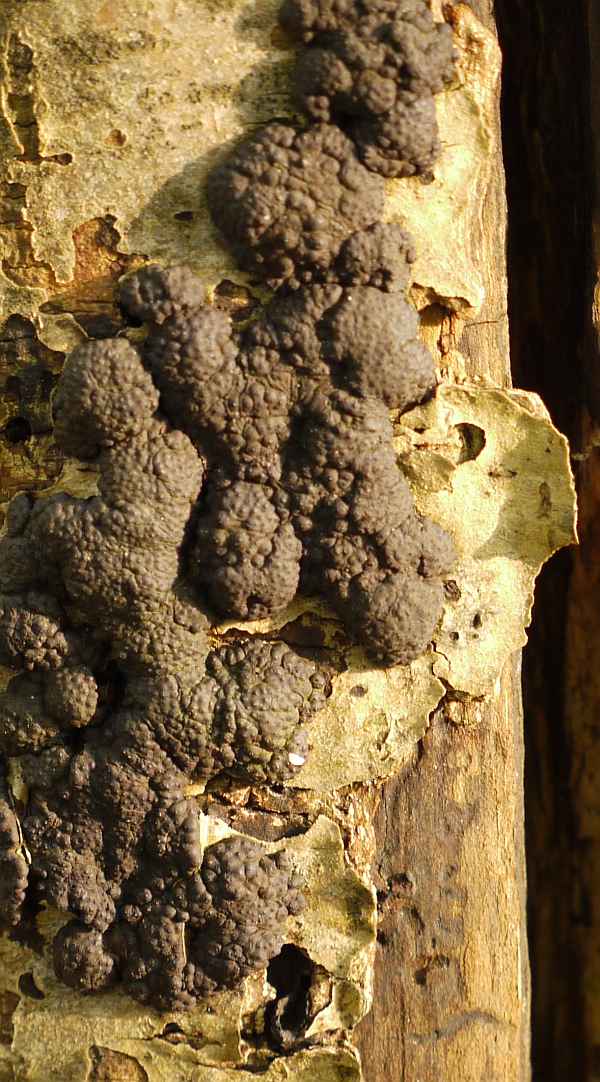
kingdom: Fungi
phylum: Ascomycota
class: Sordariomycetes
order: Xylariales
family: Hypoxylaceae
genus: Jackrogersella
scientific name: Jackrogersella multiformis
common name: foranderlig kulbær
